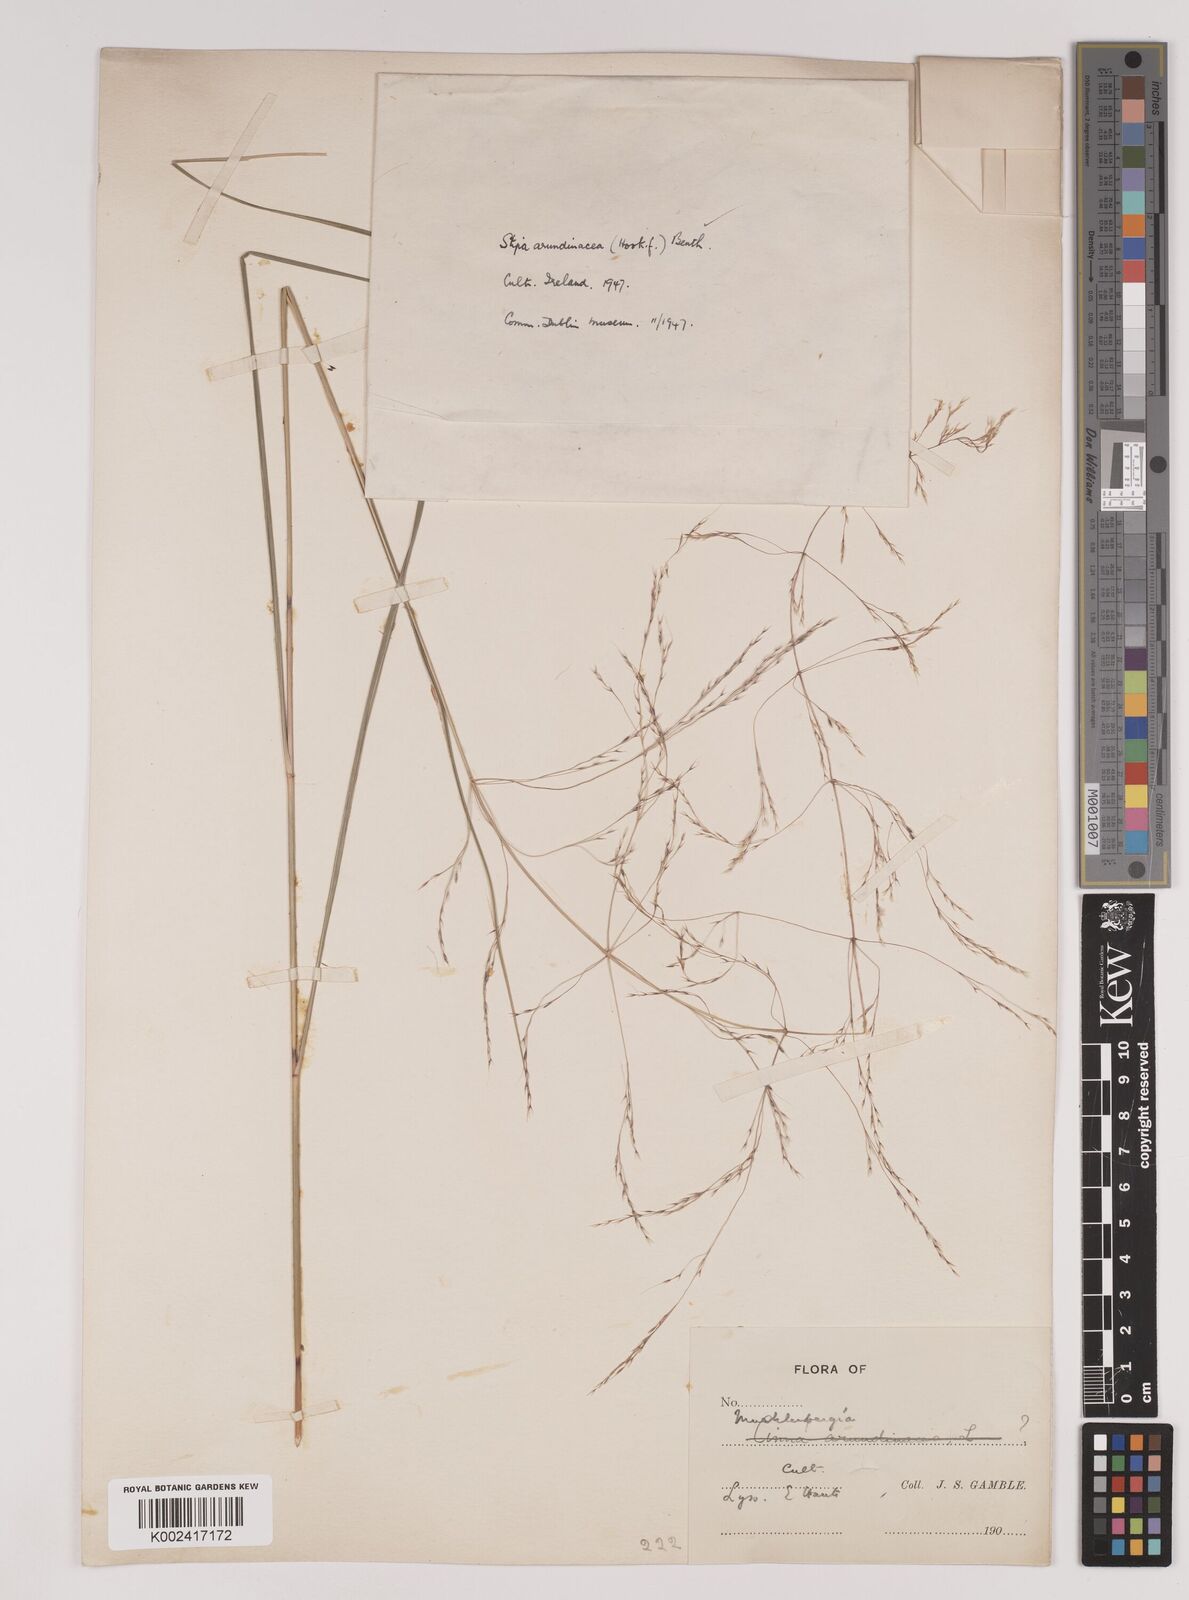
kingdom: Plantae
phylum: Tracheophyta
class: Liliopsida
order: Poales
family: Poaceae
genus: Stipa
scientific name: Stipa
